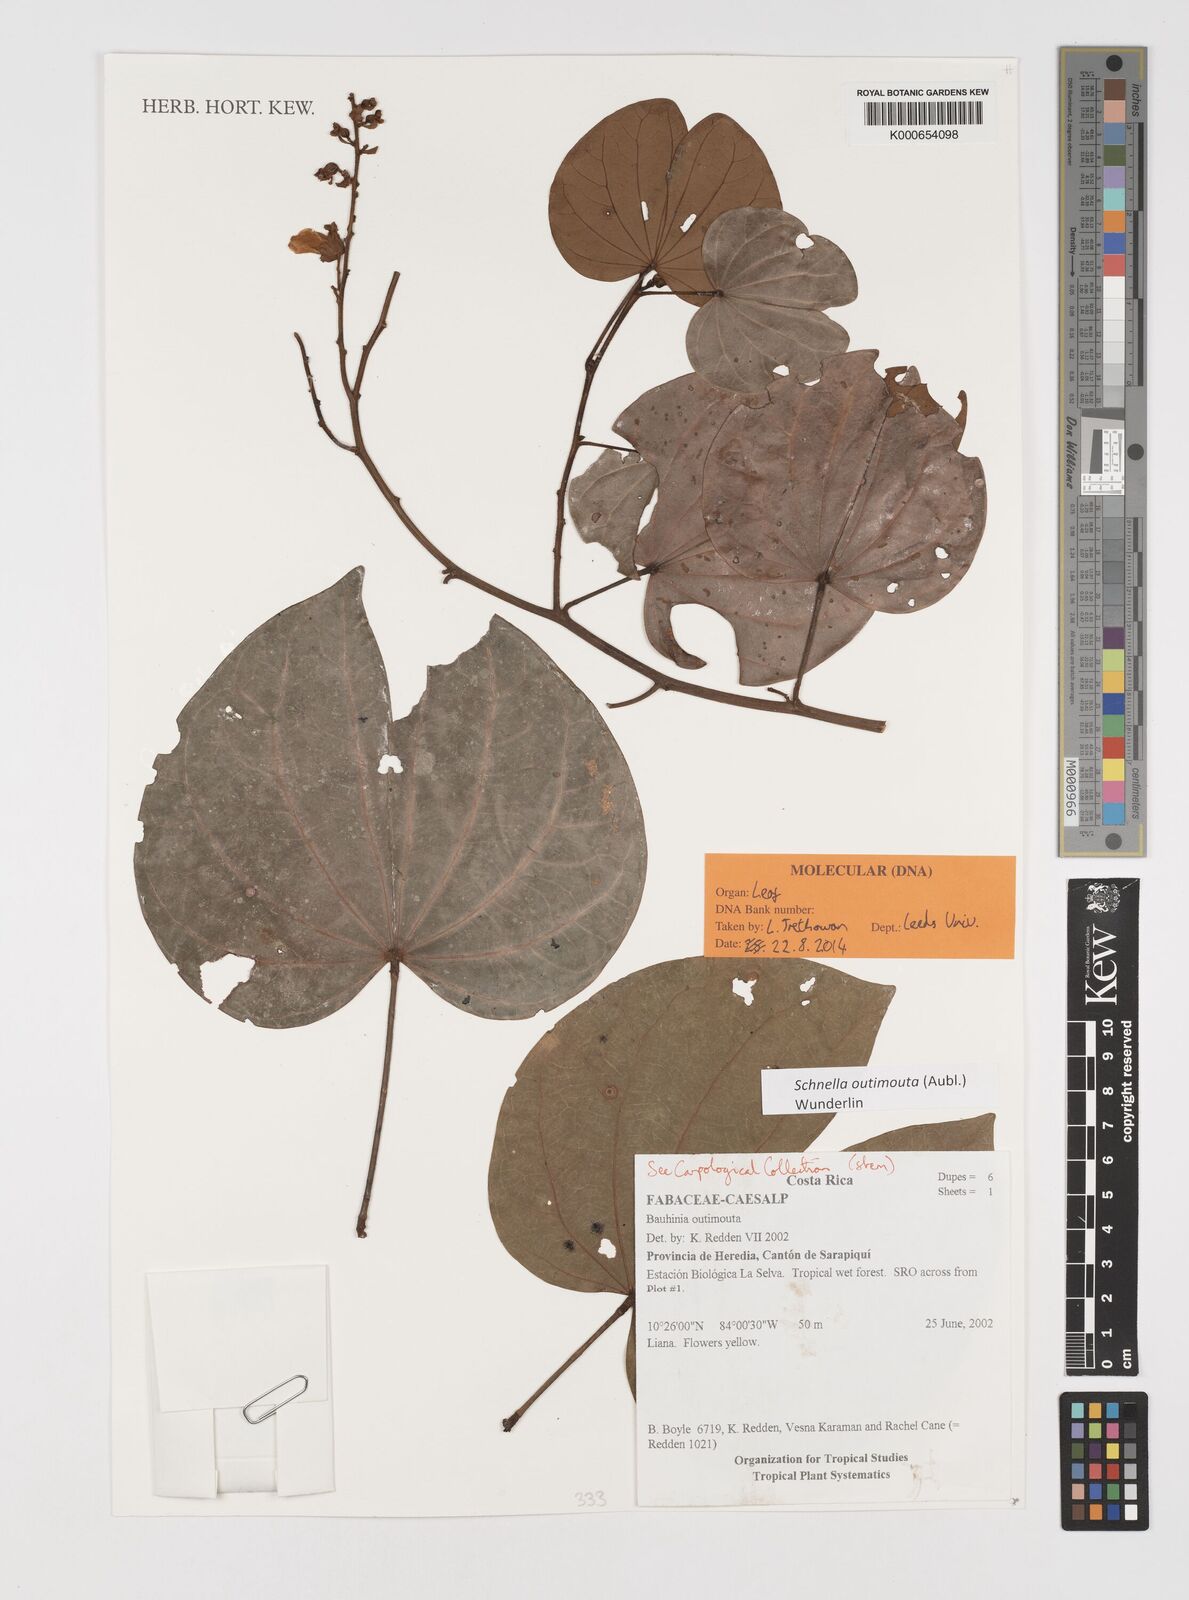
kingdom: Plantae
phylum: Tracheophyta
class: Magnoliopsida
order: Fabales
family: Fabaceae
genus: Schnella
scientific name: Schnella outimouta
